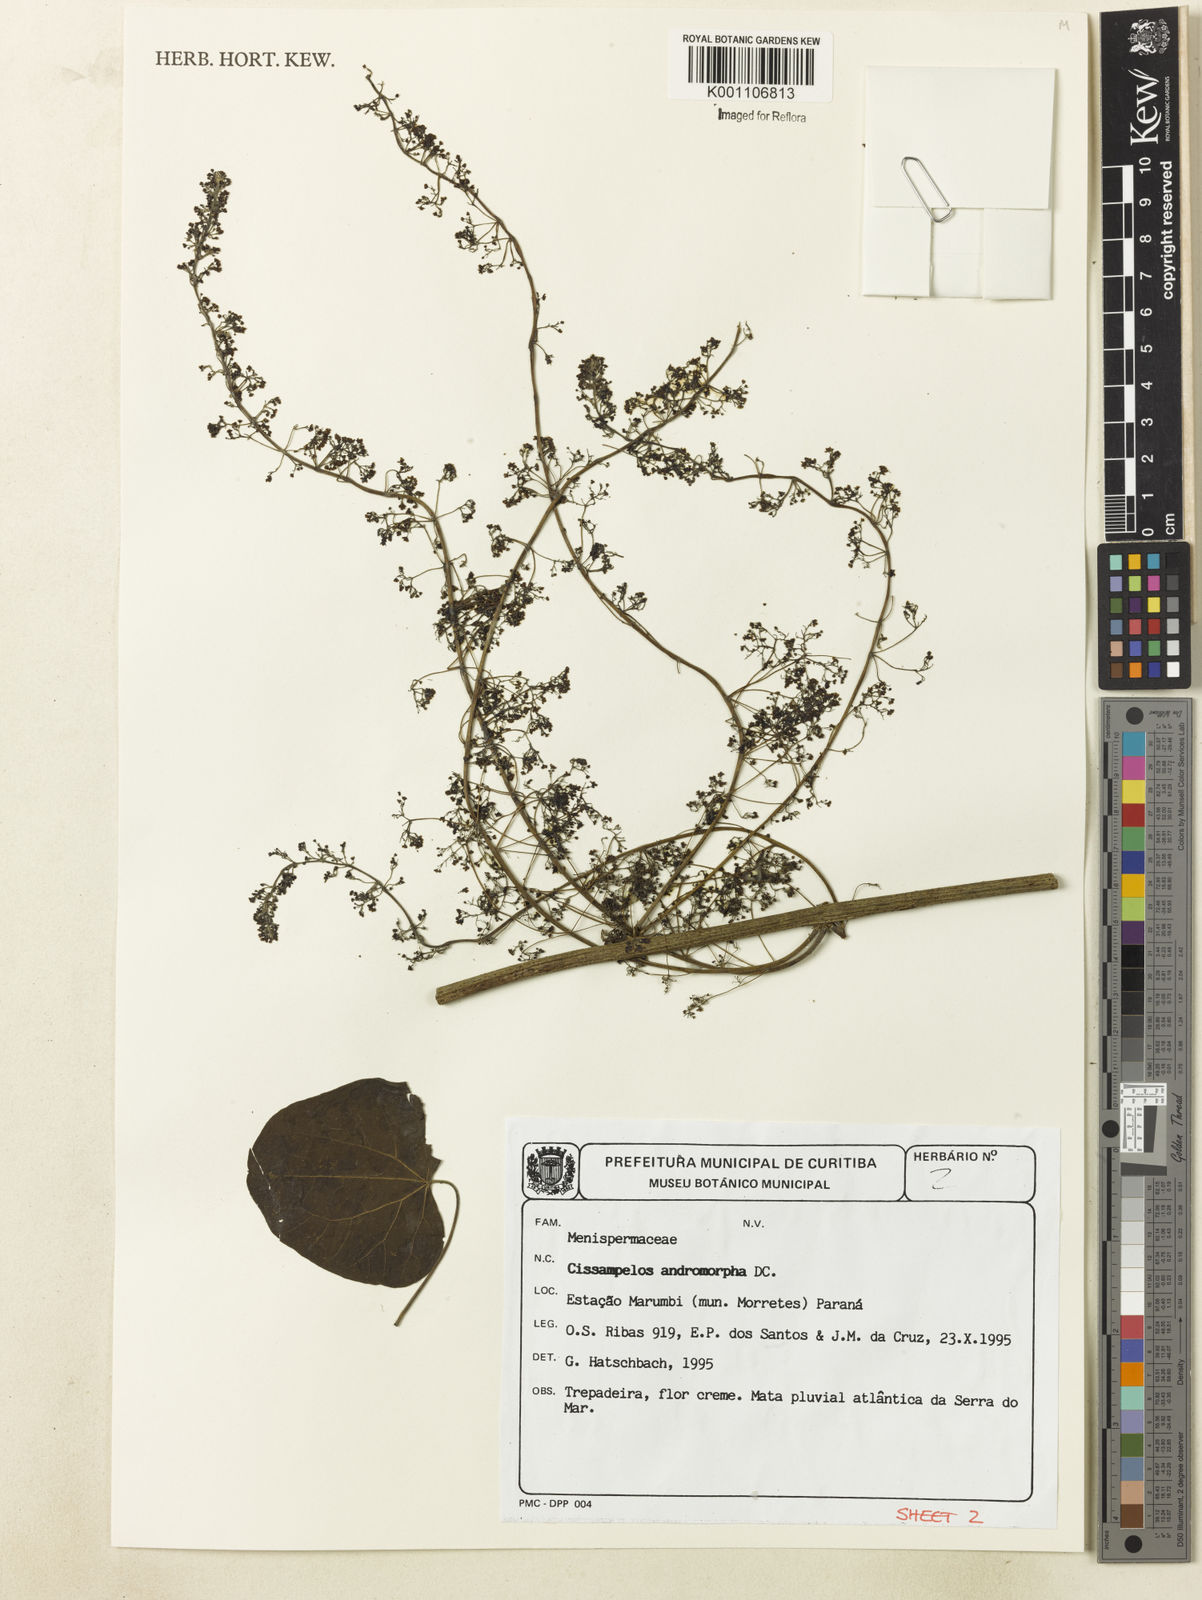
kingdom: Plantae
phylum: Tracheophyta
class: Magnoliopsida
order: Ranunculales
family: Menispermaceae
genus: Cissampelos
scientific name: Cissampelos andromorpha
